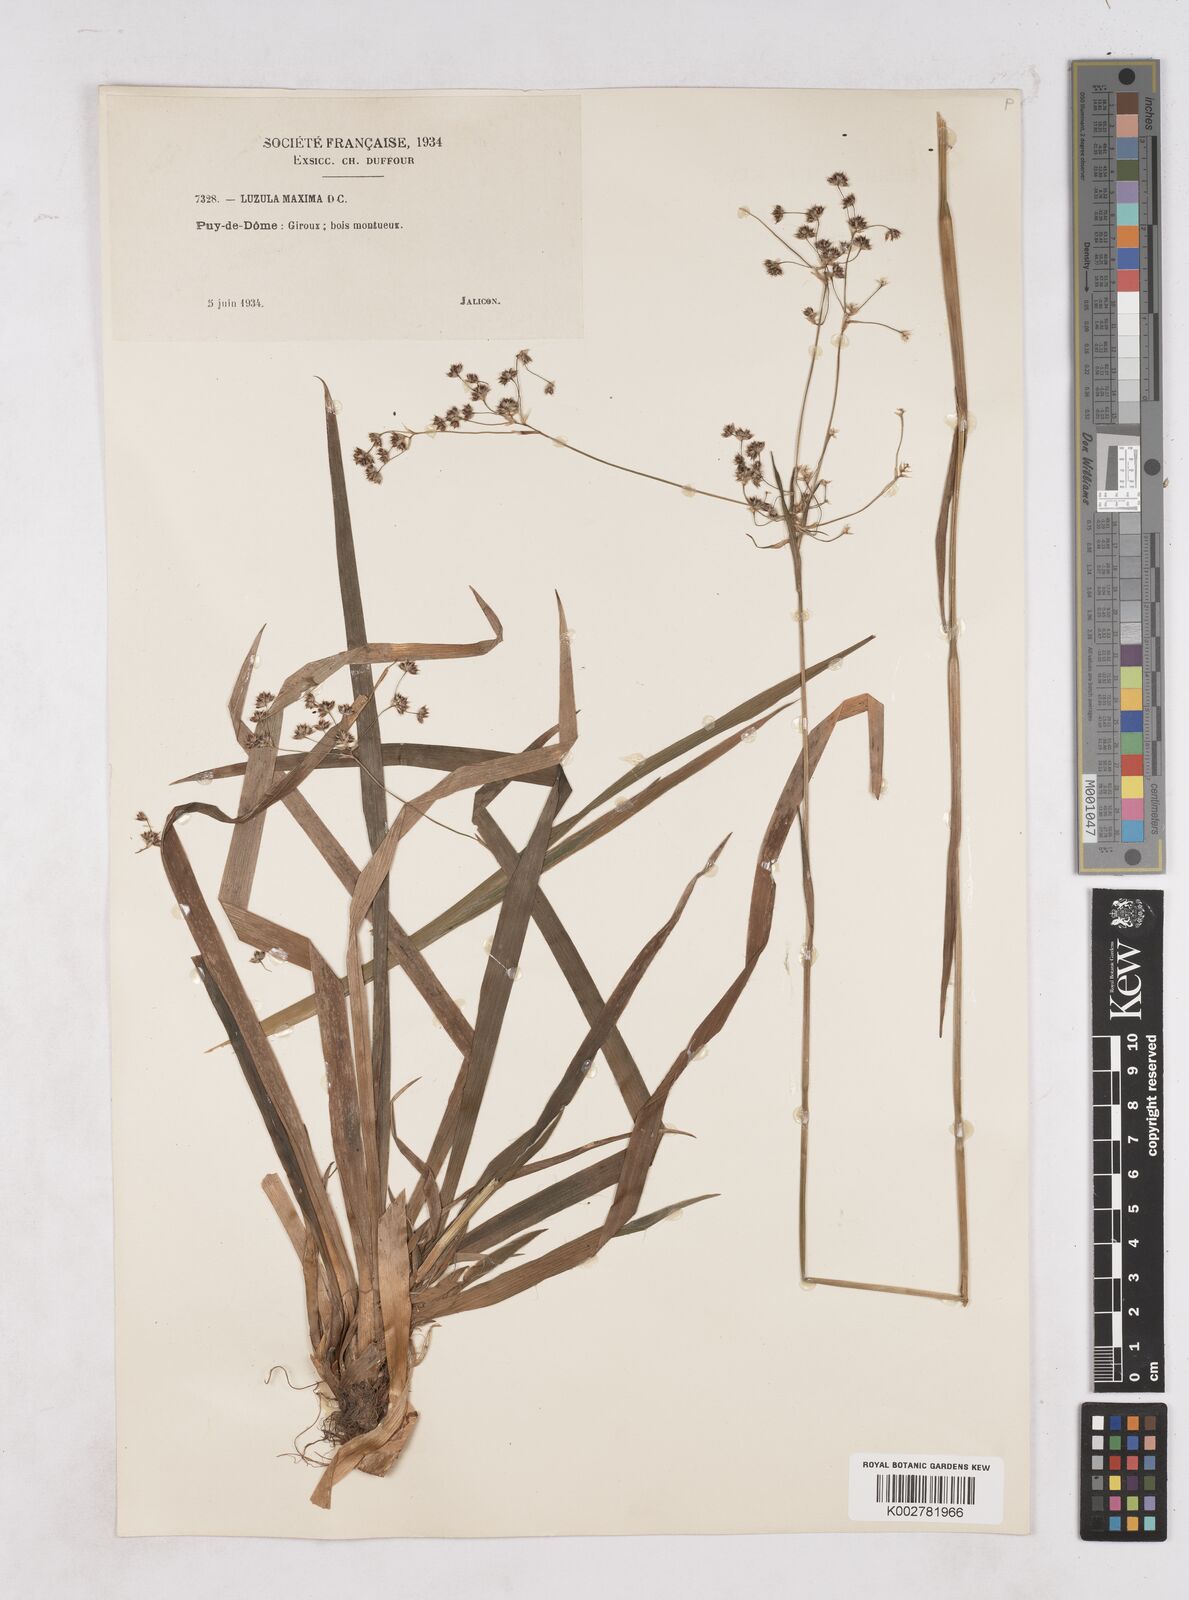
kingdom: Plantae
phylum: Tracheophyta
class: Liliopsida
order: Poales
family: Juncaceae
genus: Luzula
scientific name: Luzula sylvatica
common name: Great wood-rush
